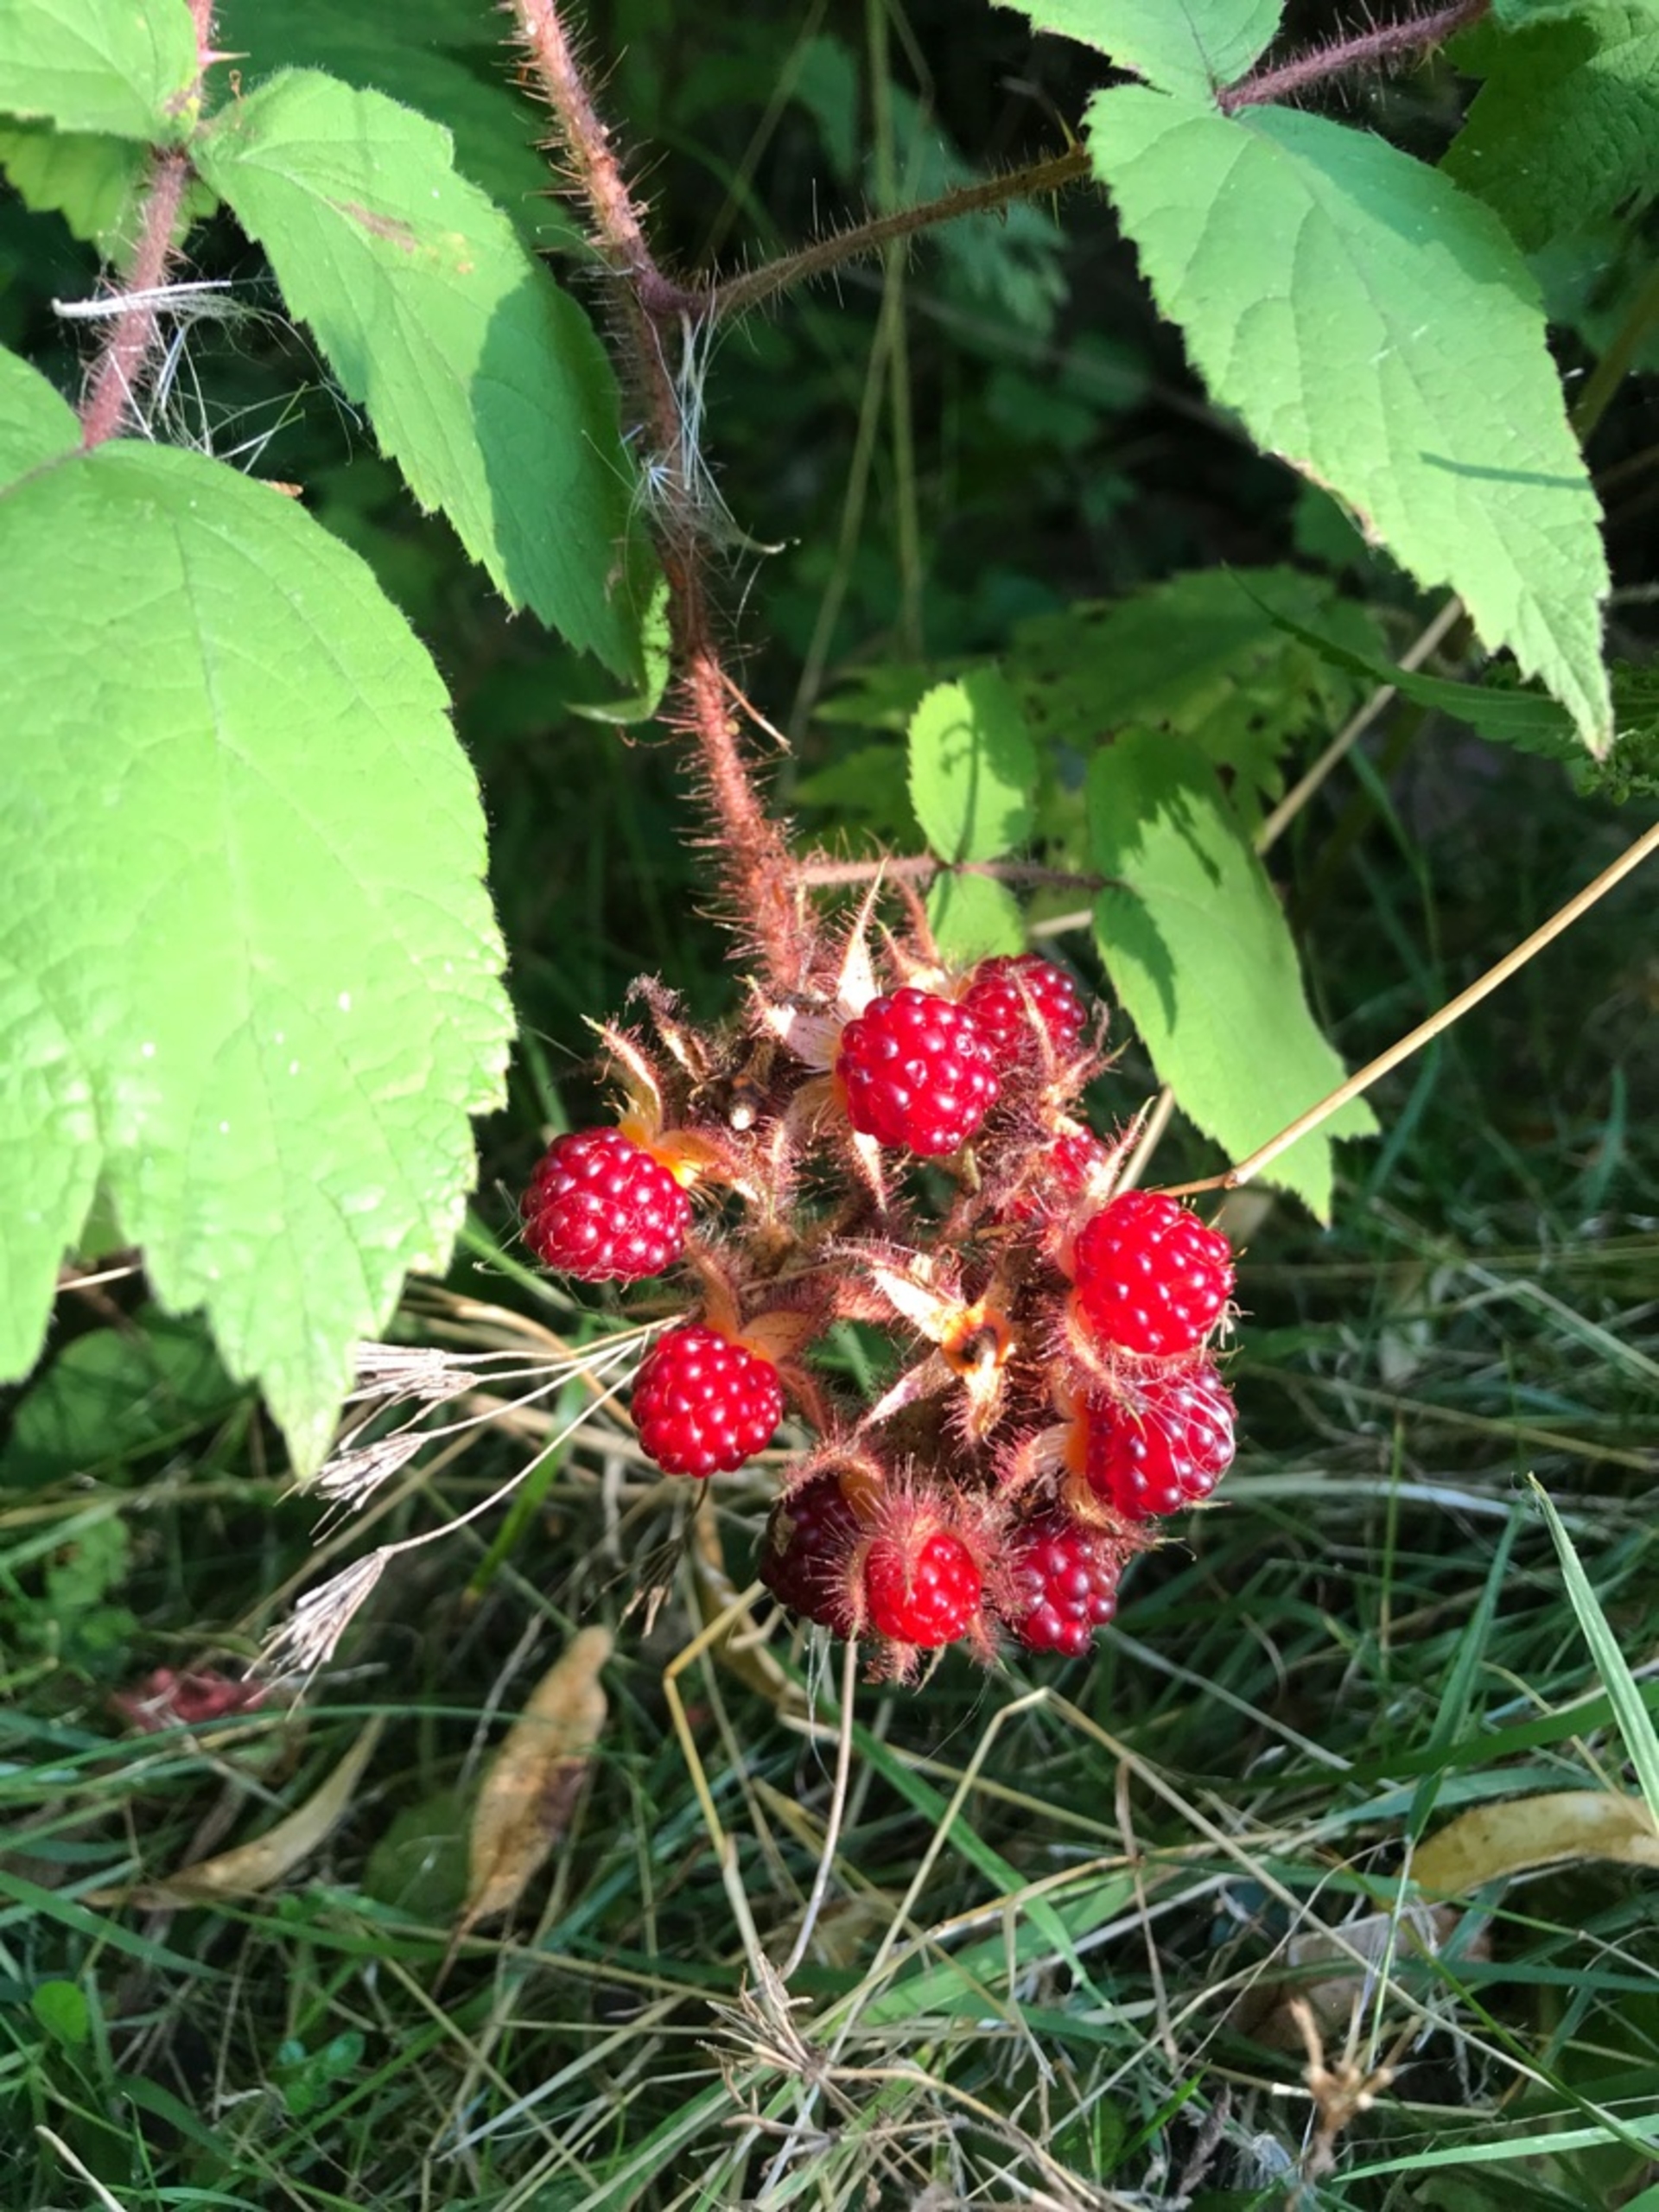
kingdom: Plantae
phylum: Tracheophyta
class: Magnoliopsida
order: Rosales
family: Rosaceae
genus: Rubus
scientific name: Rubus phoenicolasius
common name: Vin-brombær
